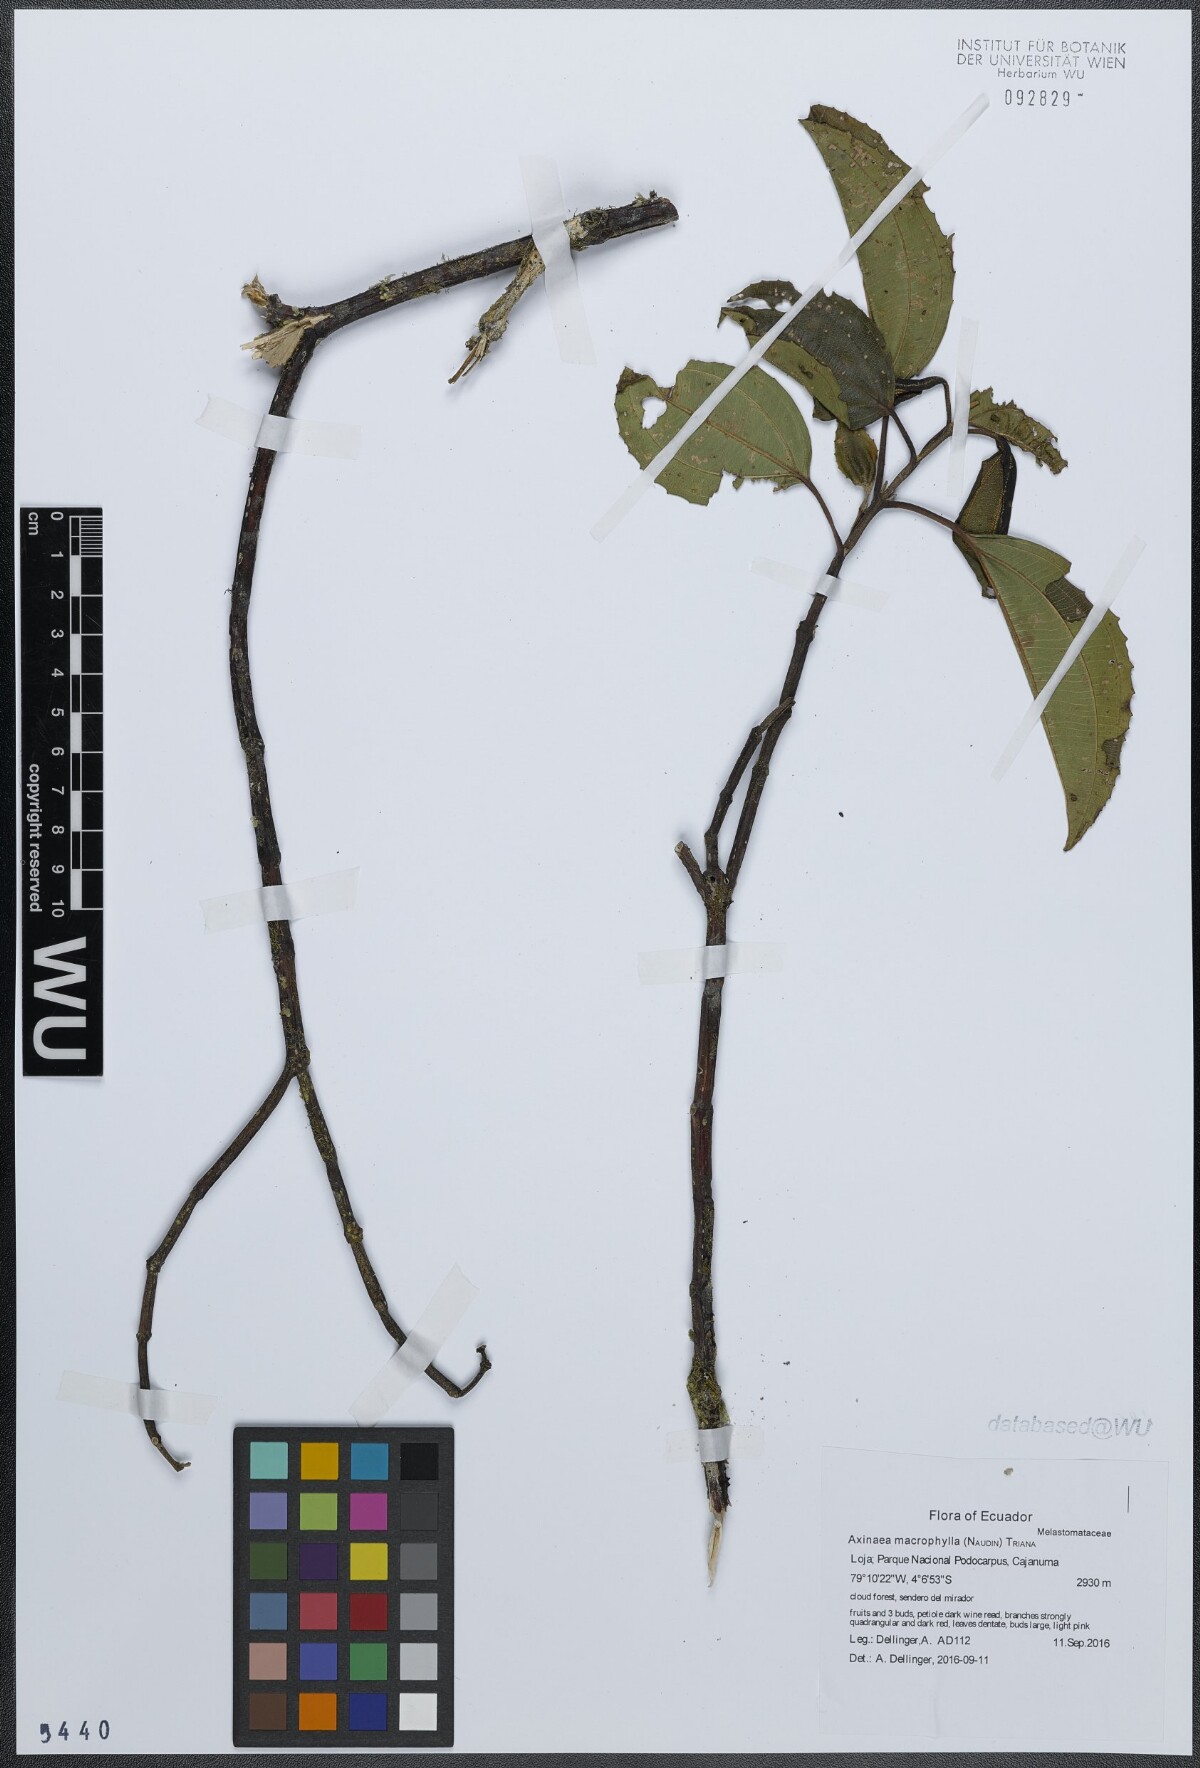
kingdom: Plantae
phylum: Tracheophyta
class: Magnoliopsida
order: Myrtales
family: Melastomataceae
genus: Axinaea
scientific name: Axinaea macrophylla
